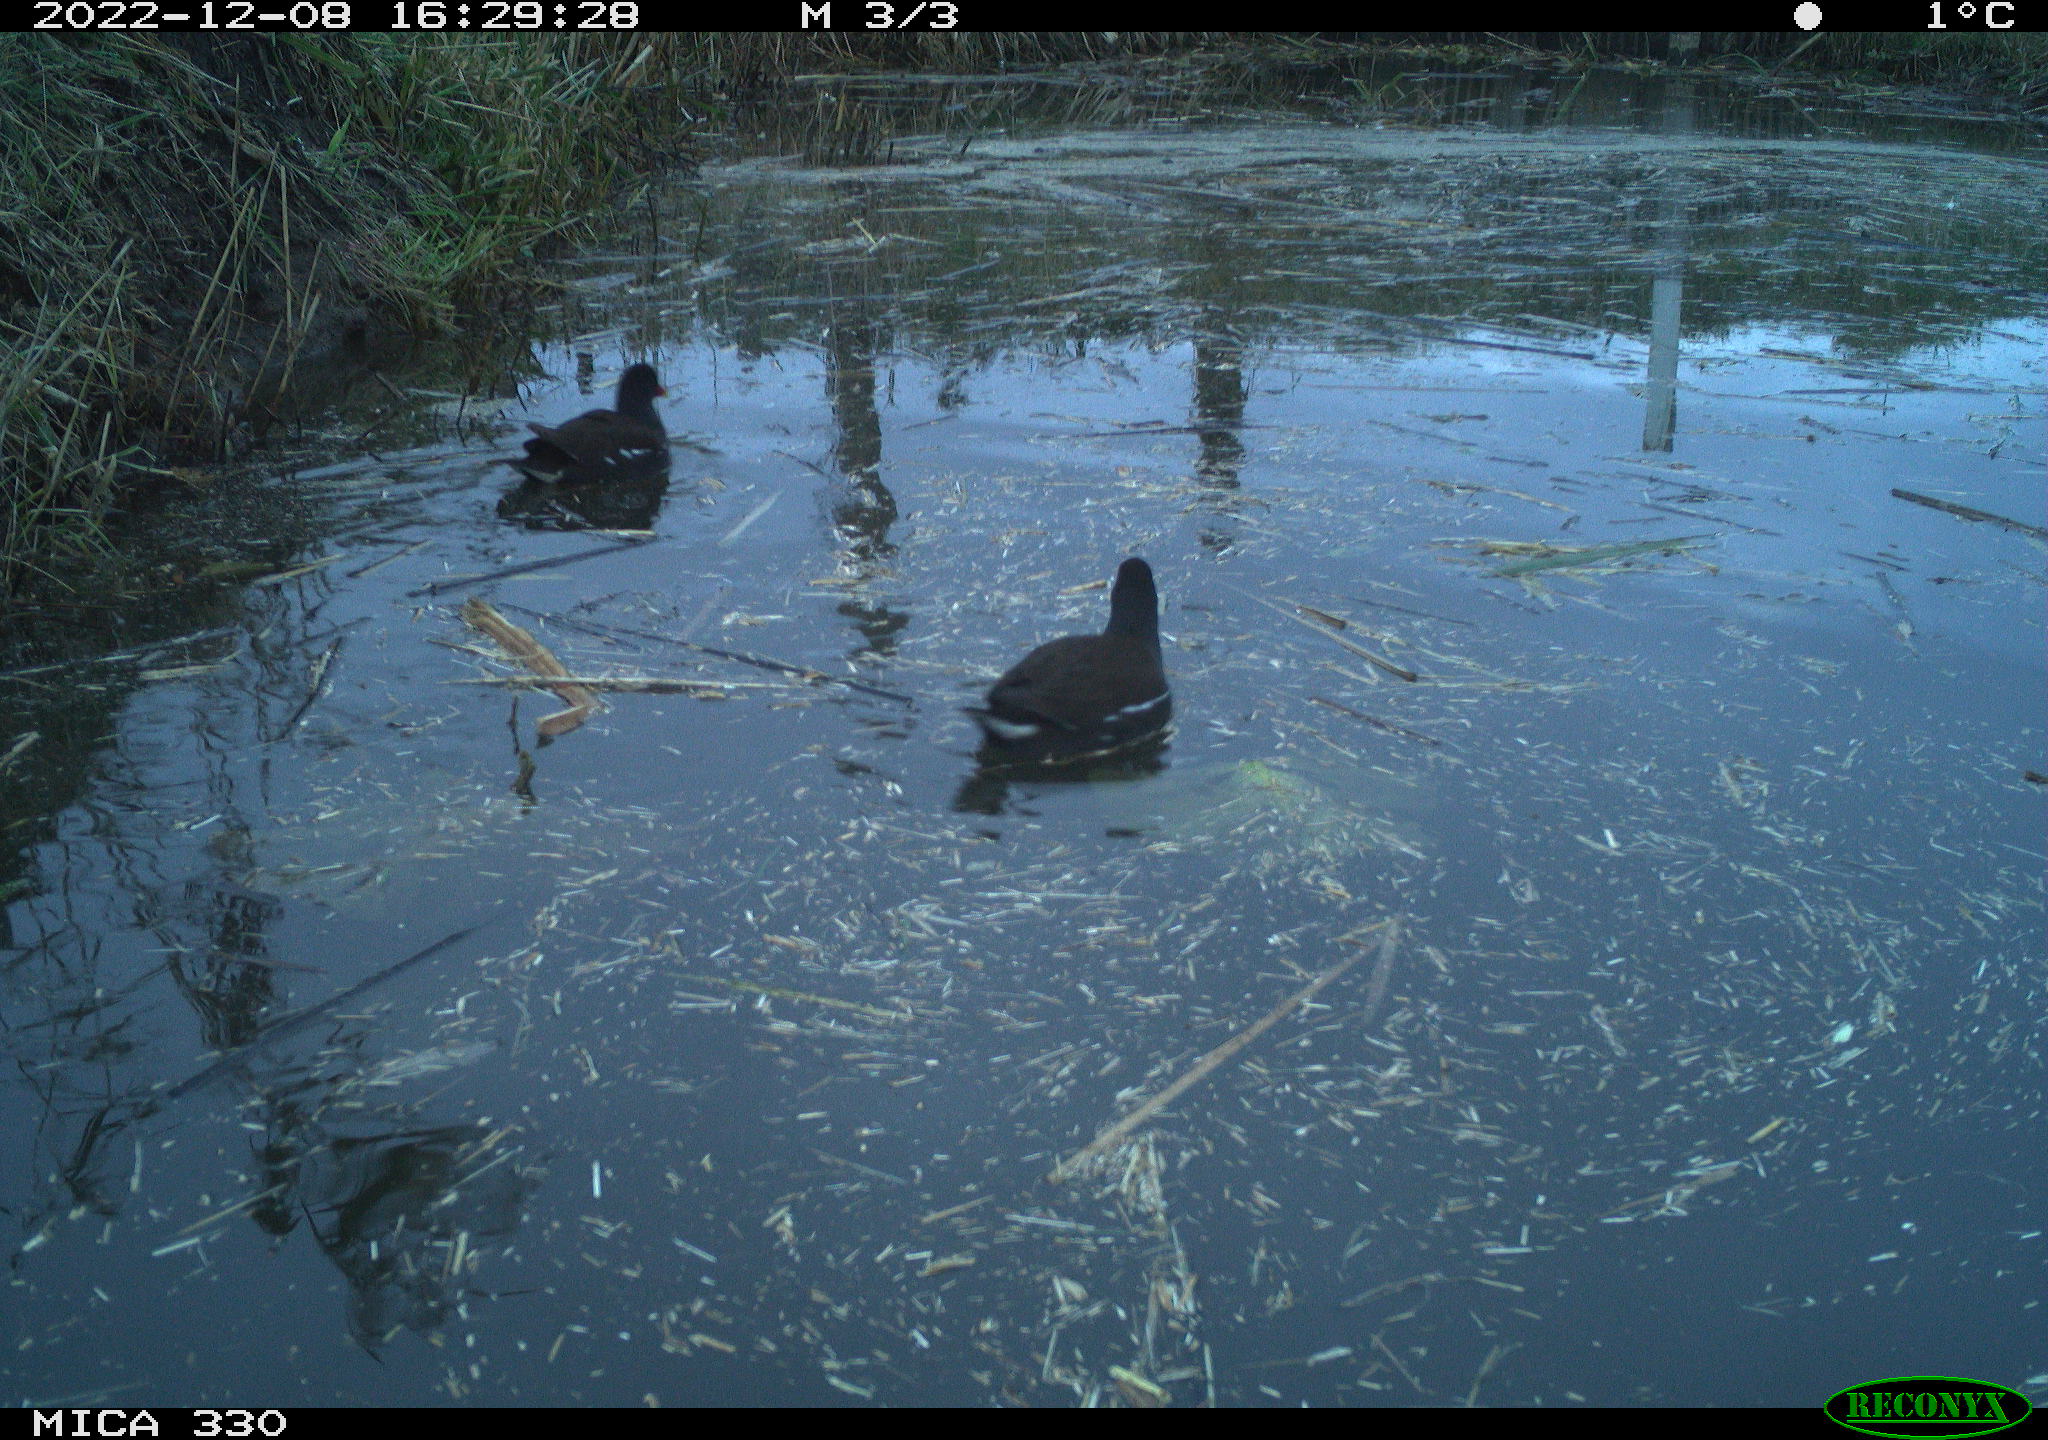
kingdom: Animalia
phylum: Chordata
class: Aves
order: Gruiformes
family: Rallidae
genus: Gallinula
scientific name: Gallinula chloropus
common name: Common moorhen
